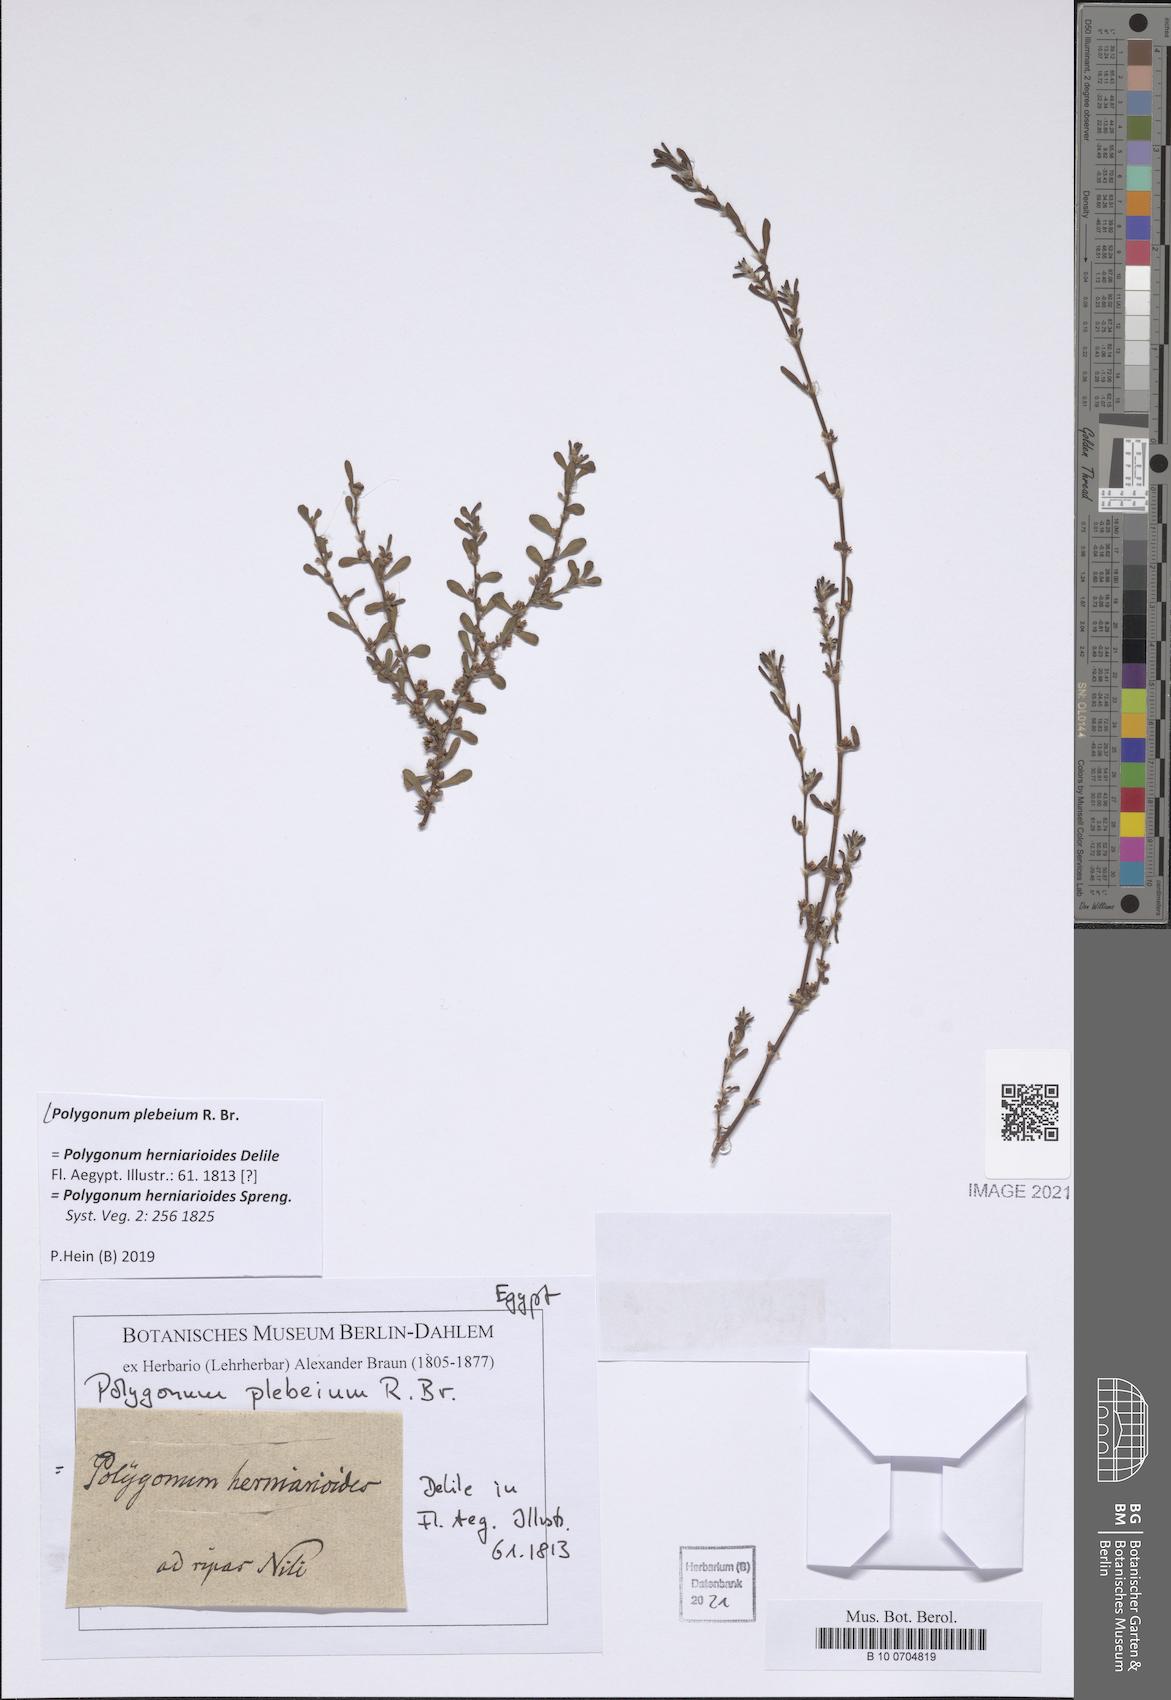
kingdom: Plantae
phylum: Tracheophyta
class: Magnoliopsida
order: Boraginales
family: Heliotropiaceae
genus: Euploca
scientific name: Euploca ovalifolia
